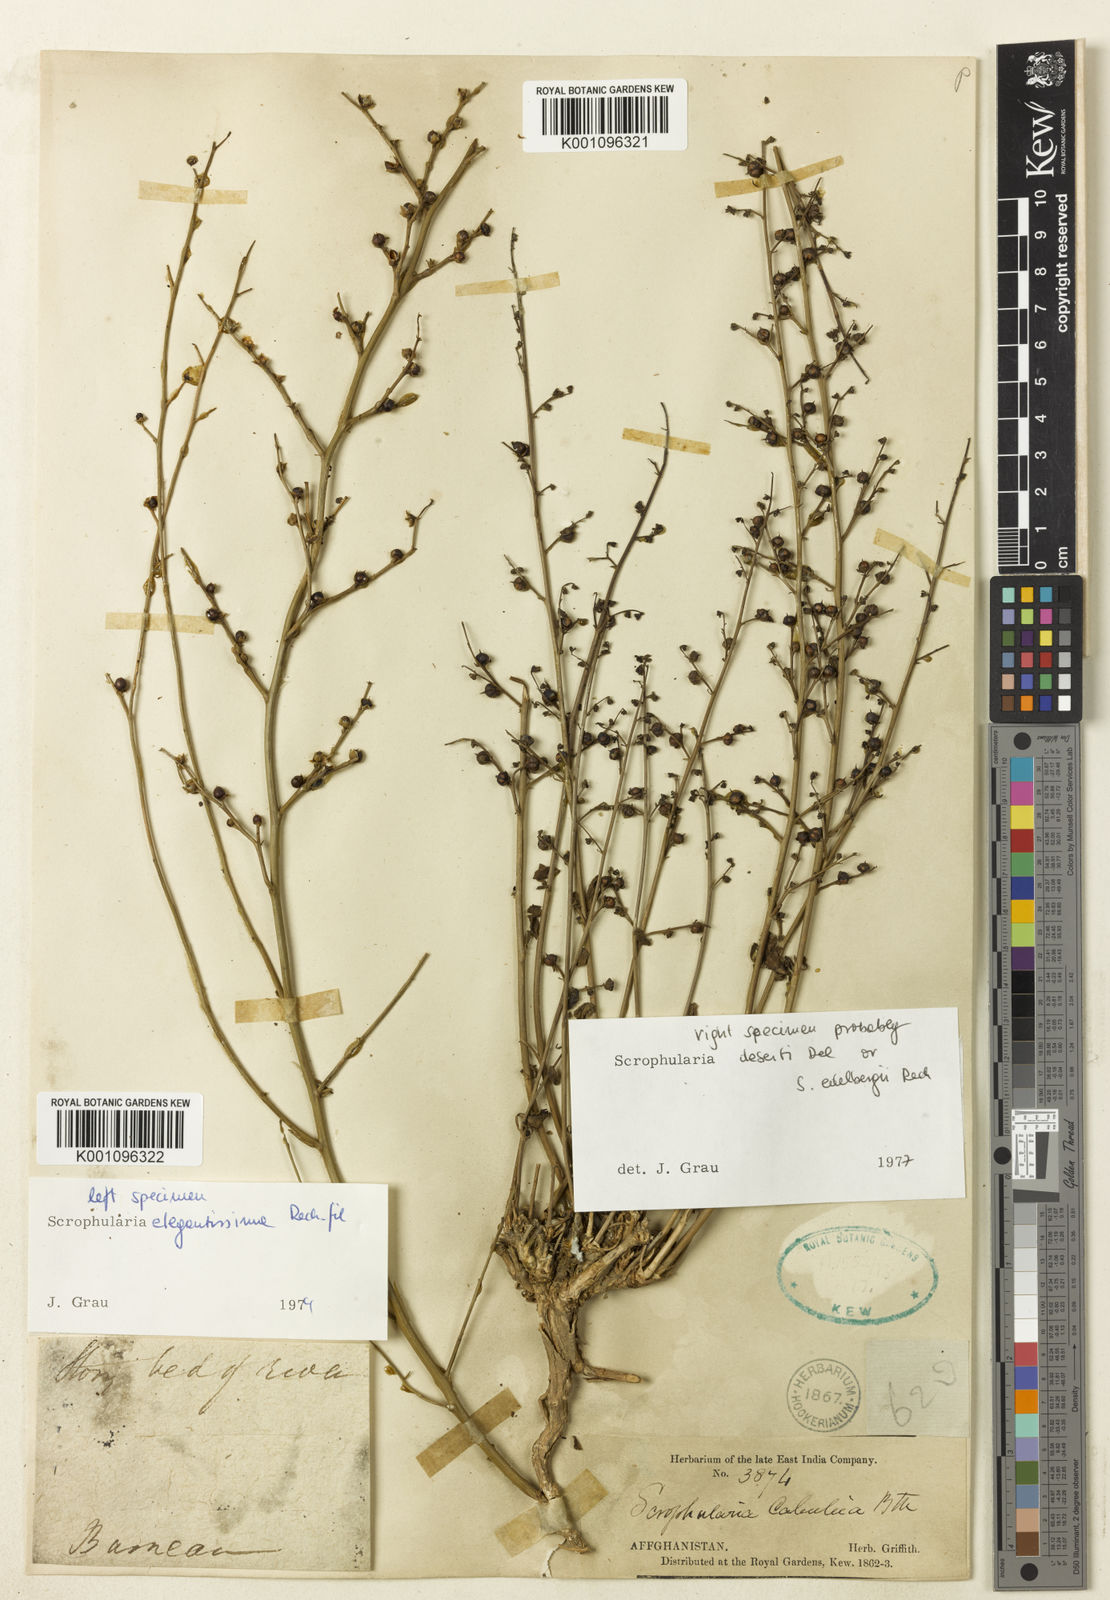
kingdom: Plantae
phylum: Tracheophyta
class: Magnoliopsida
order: Lamiales
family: Scrophulariaceae
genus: Scrophularia
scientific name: Scrophularia cabulica
